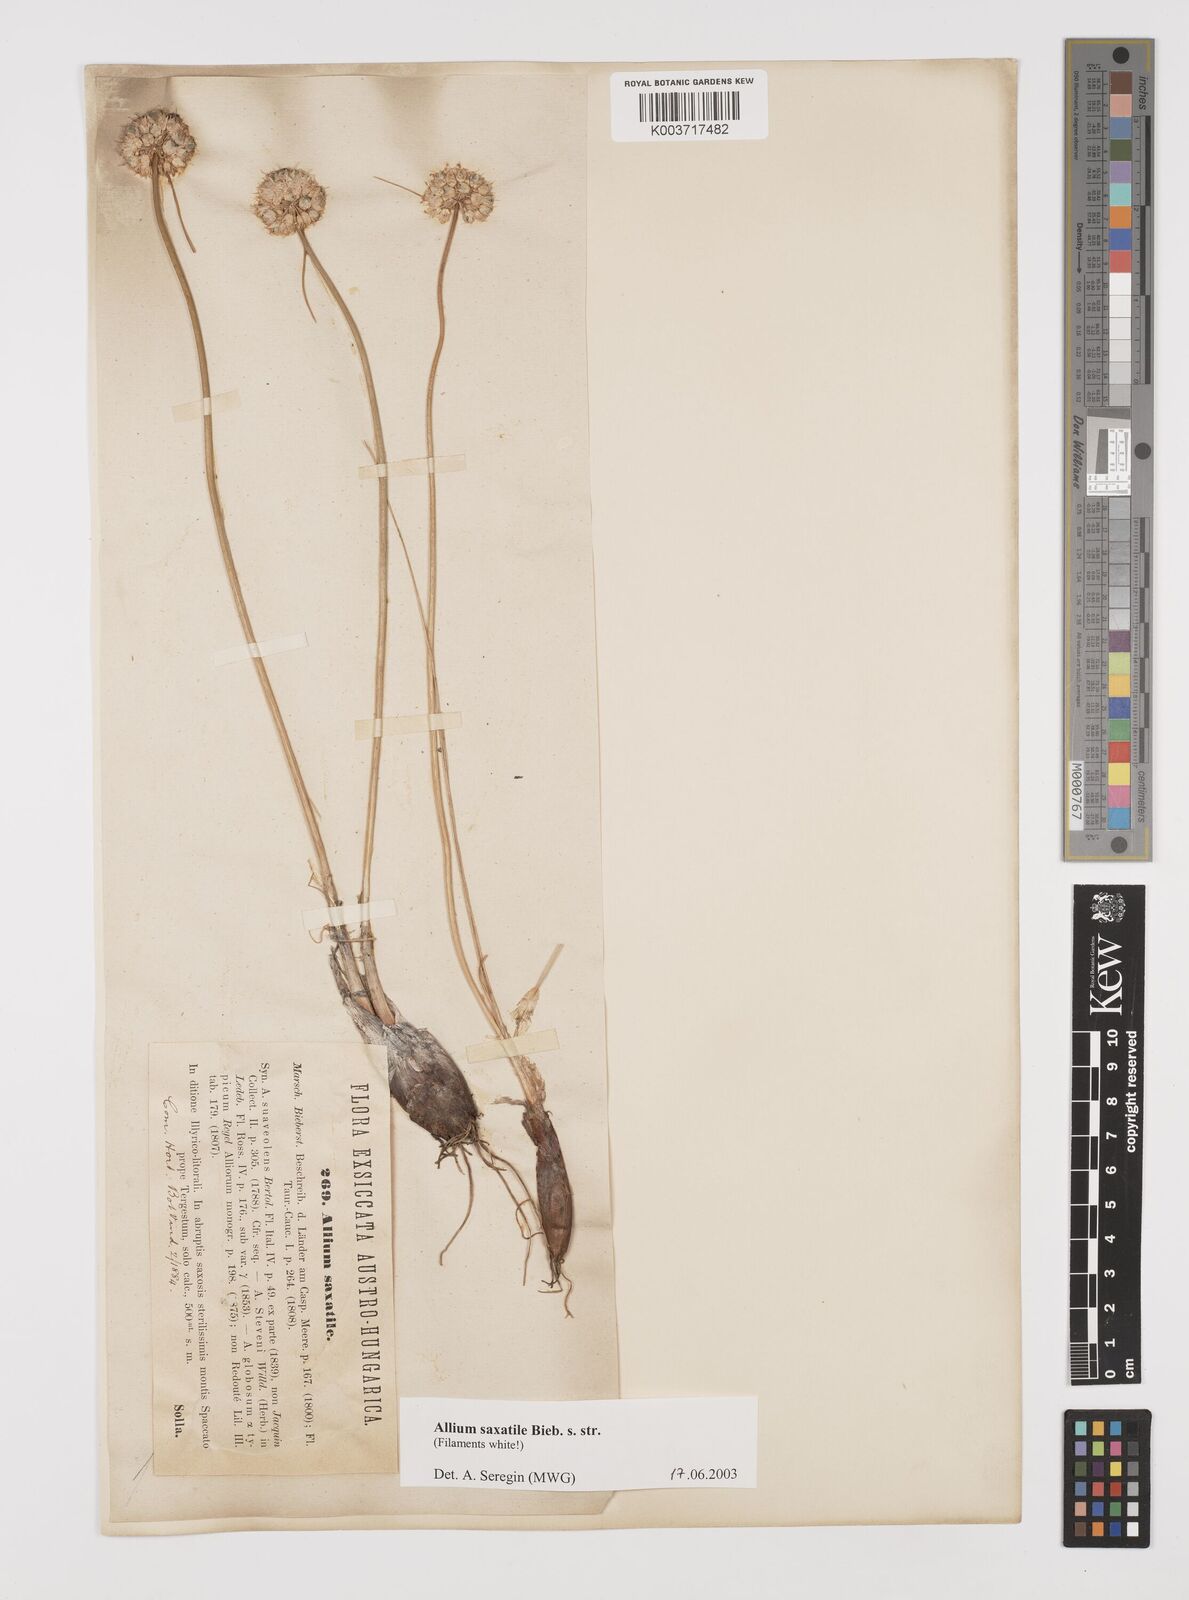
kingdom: Plantae
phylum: Tracheophyta
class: Liliopsida
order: Asparagales
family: Amaryllidaceae
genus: Allium
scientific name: Allium saxatile
